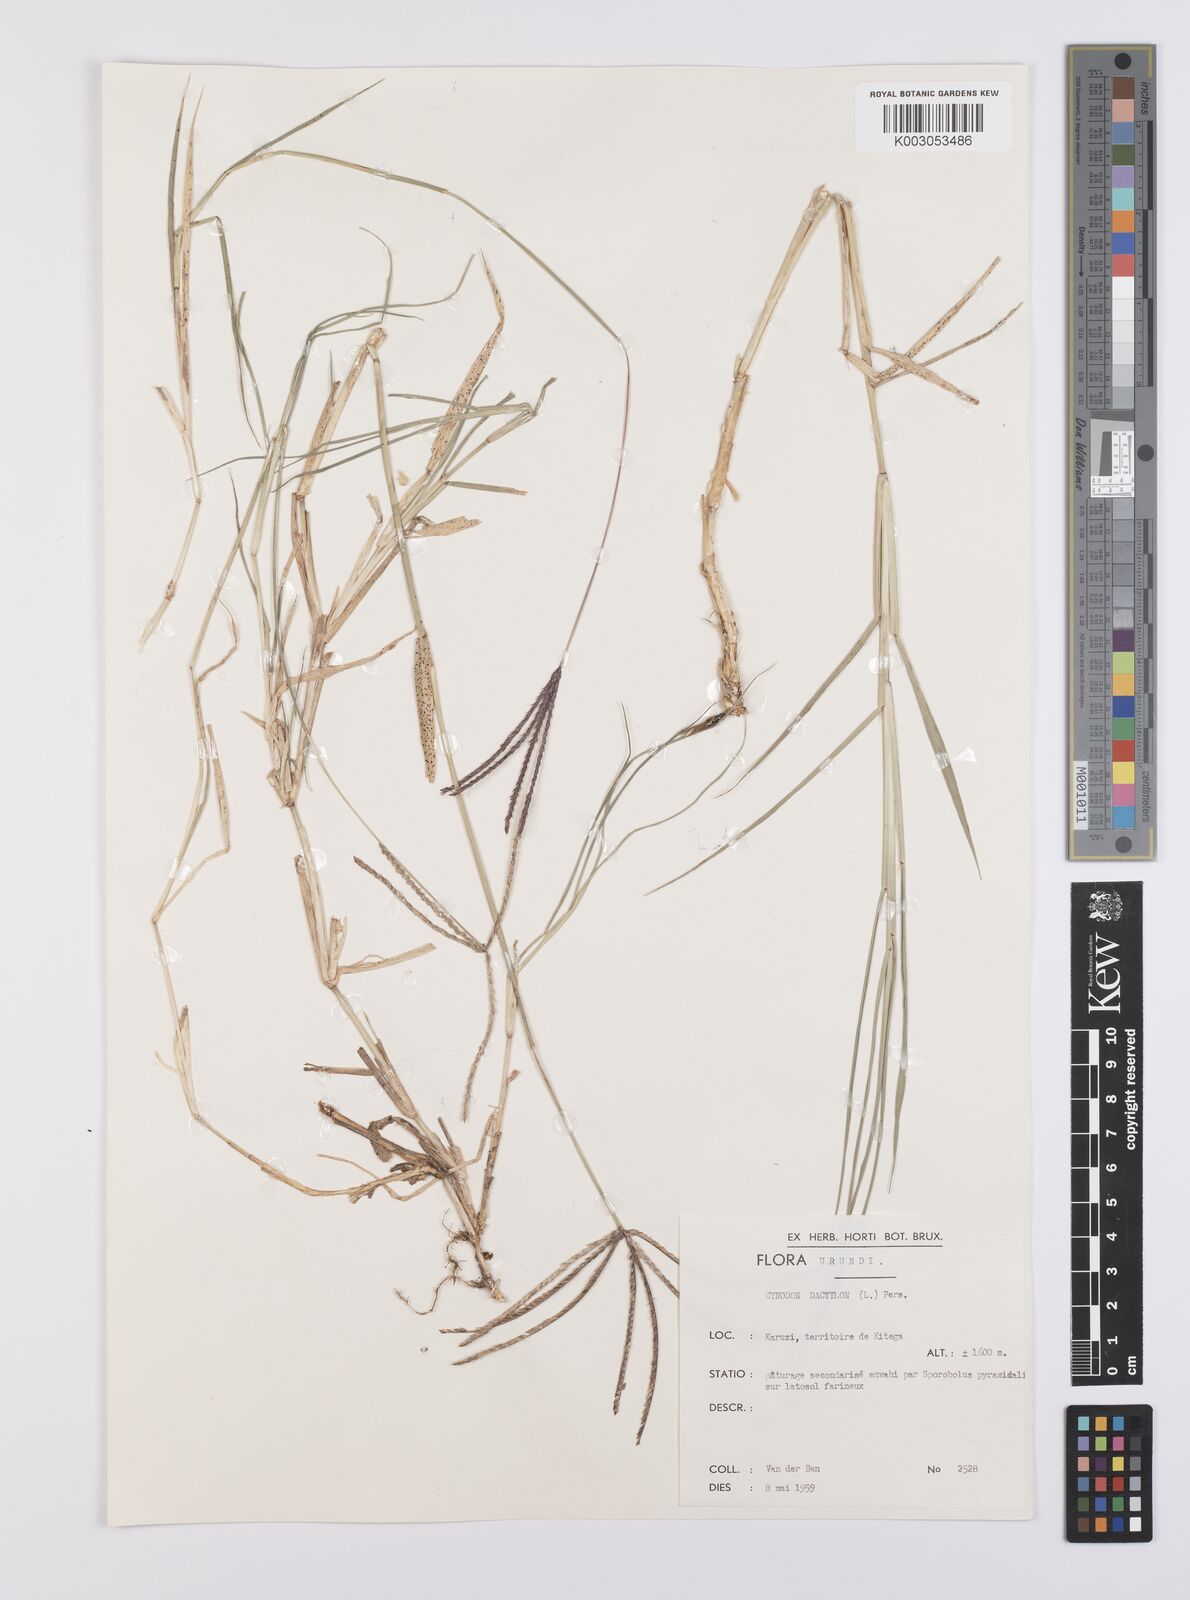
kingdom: Plantae
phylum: Tracheophyta
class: Liliopsida
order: Poales
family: Poaceae
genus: Cynodon
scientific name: Cynodon dactylon
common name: Bermuda grass
